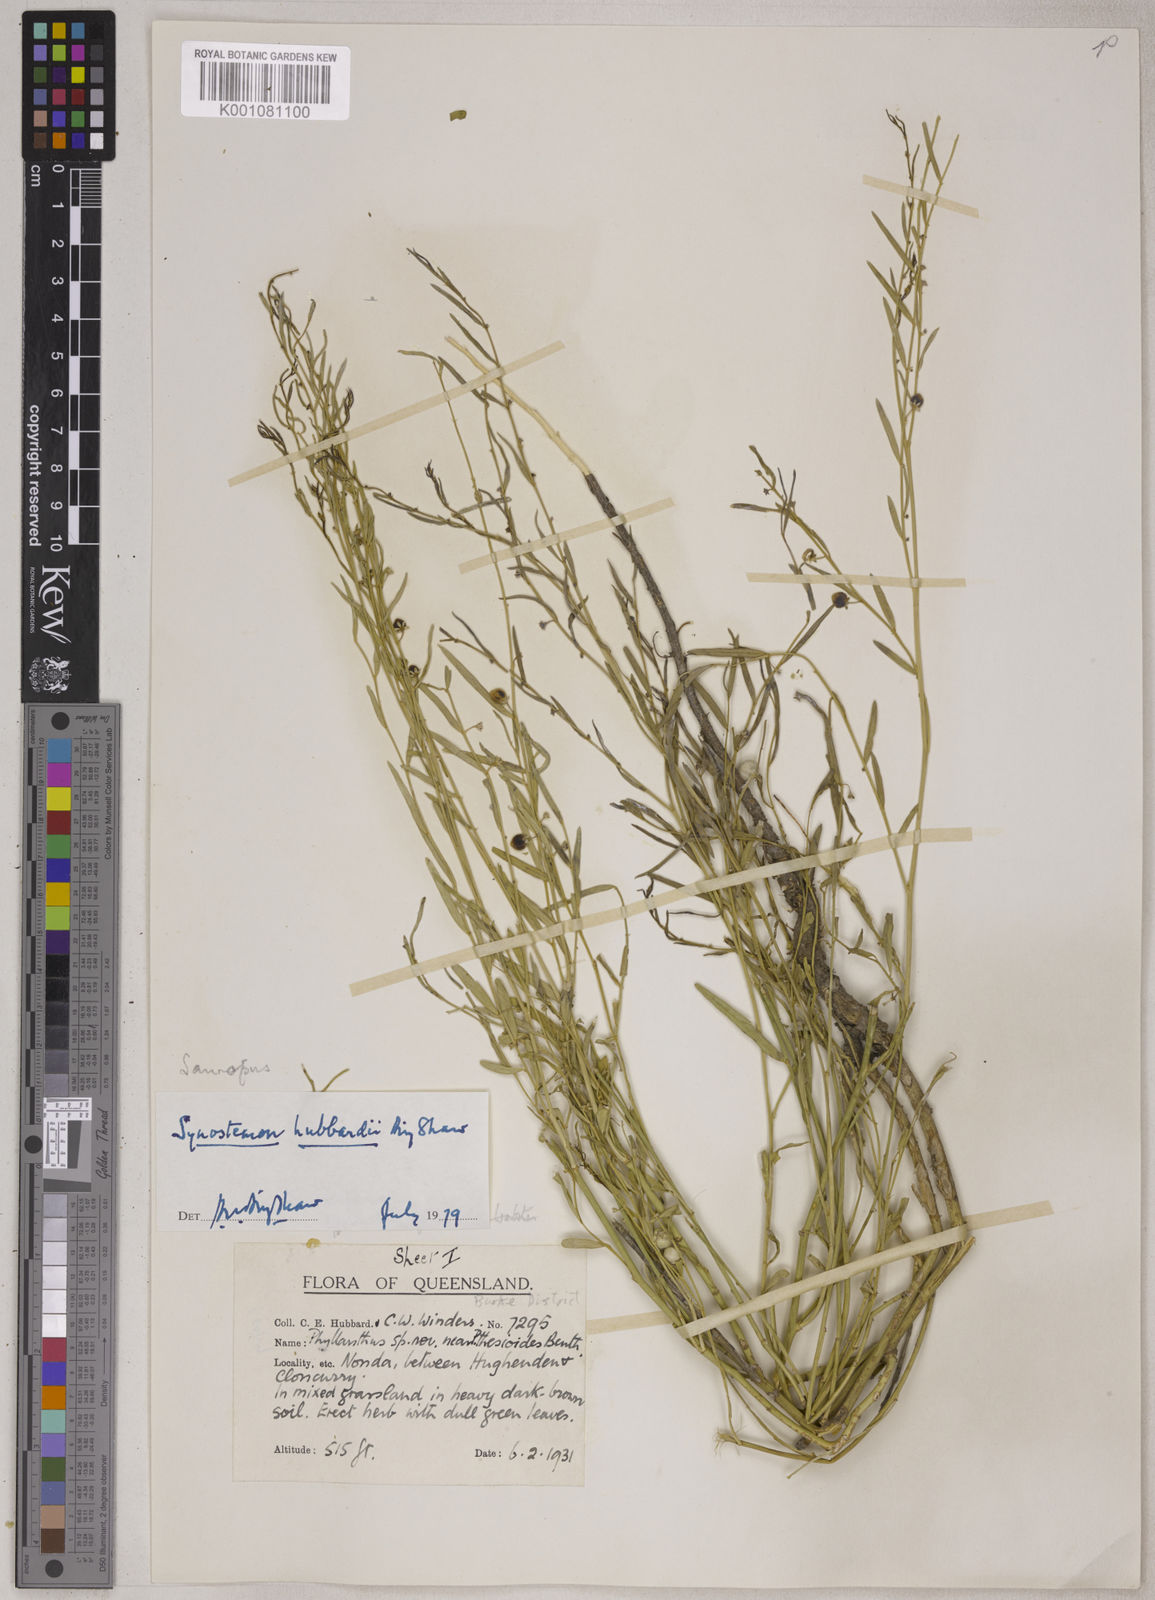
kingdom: Plantae
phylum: Tracheophyta
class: Magnoliopsida
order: Malpighiales
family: Phyllanthaceae
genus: Synostemon
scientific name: Synostemon trachyspermus
